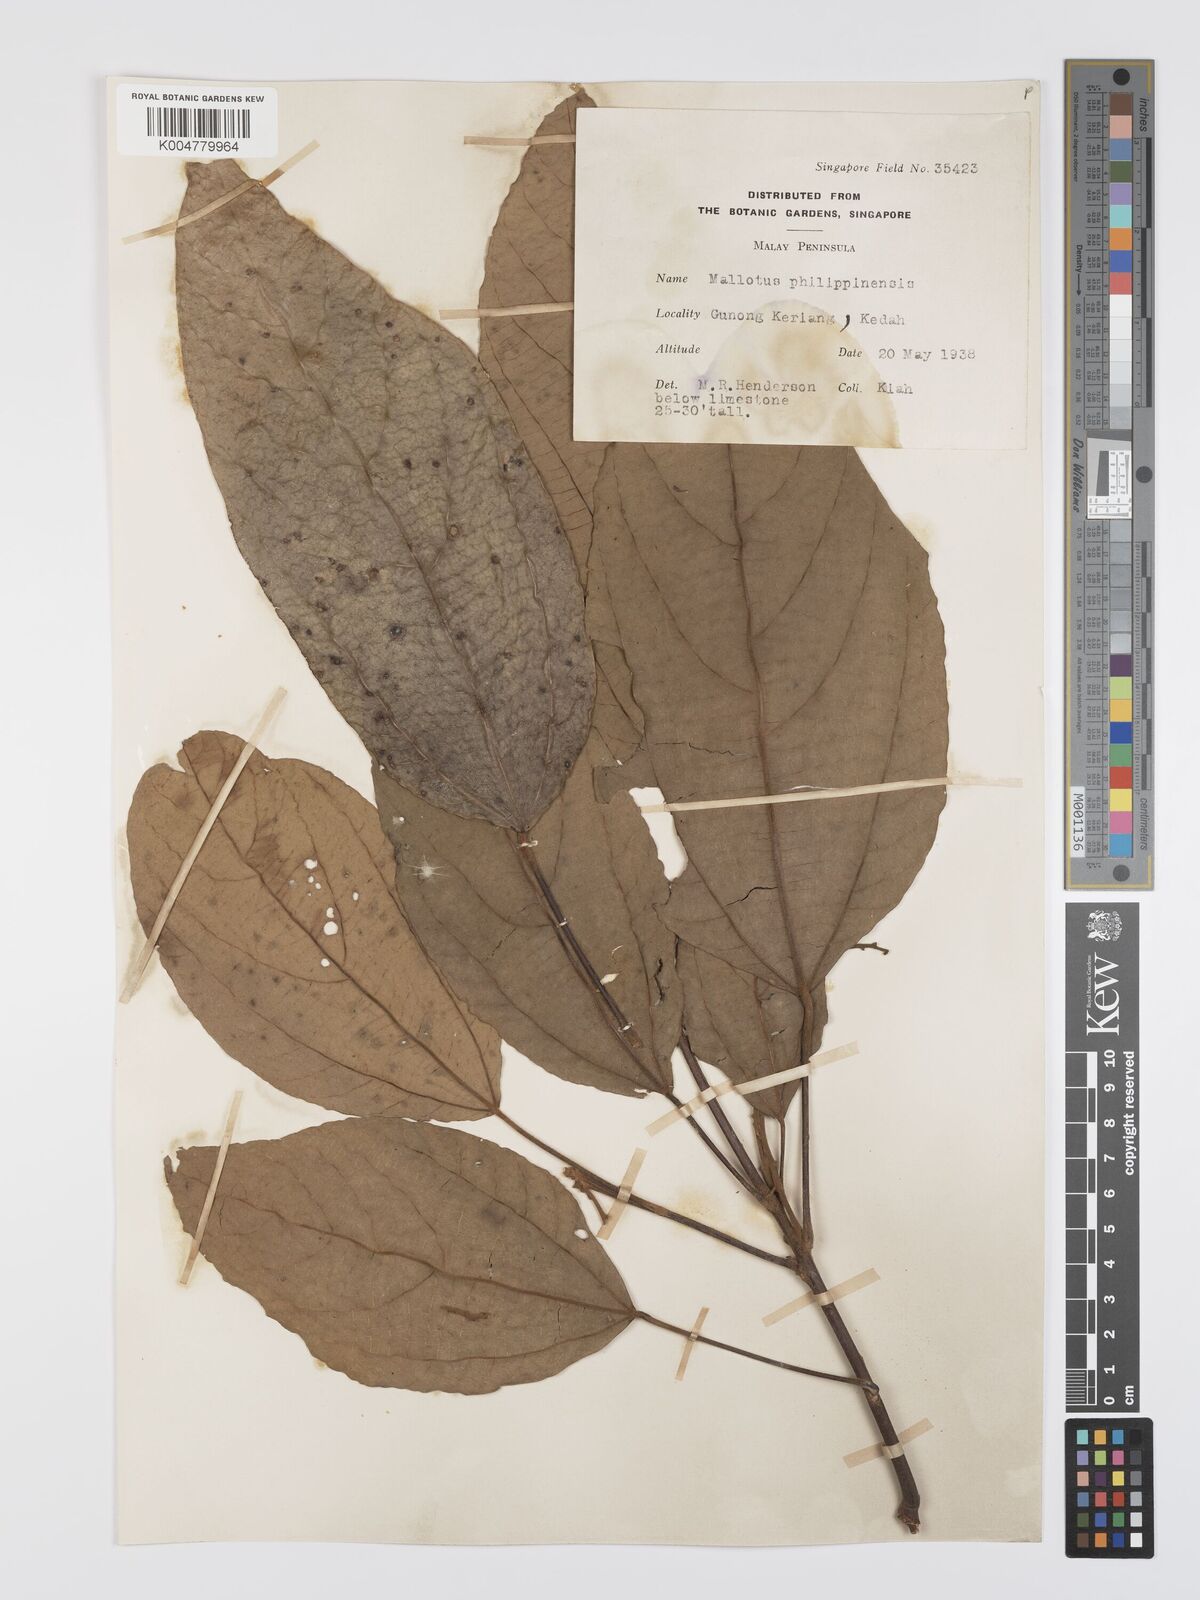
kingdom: Plantae
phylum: Tracheophyta
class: Magnoliopsida
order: Malpighiales
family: Euphorbiaceae
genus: Mallotus
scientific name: Mallotus philippensis
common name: Kamala tree
